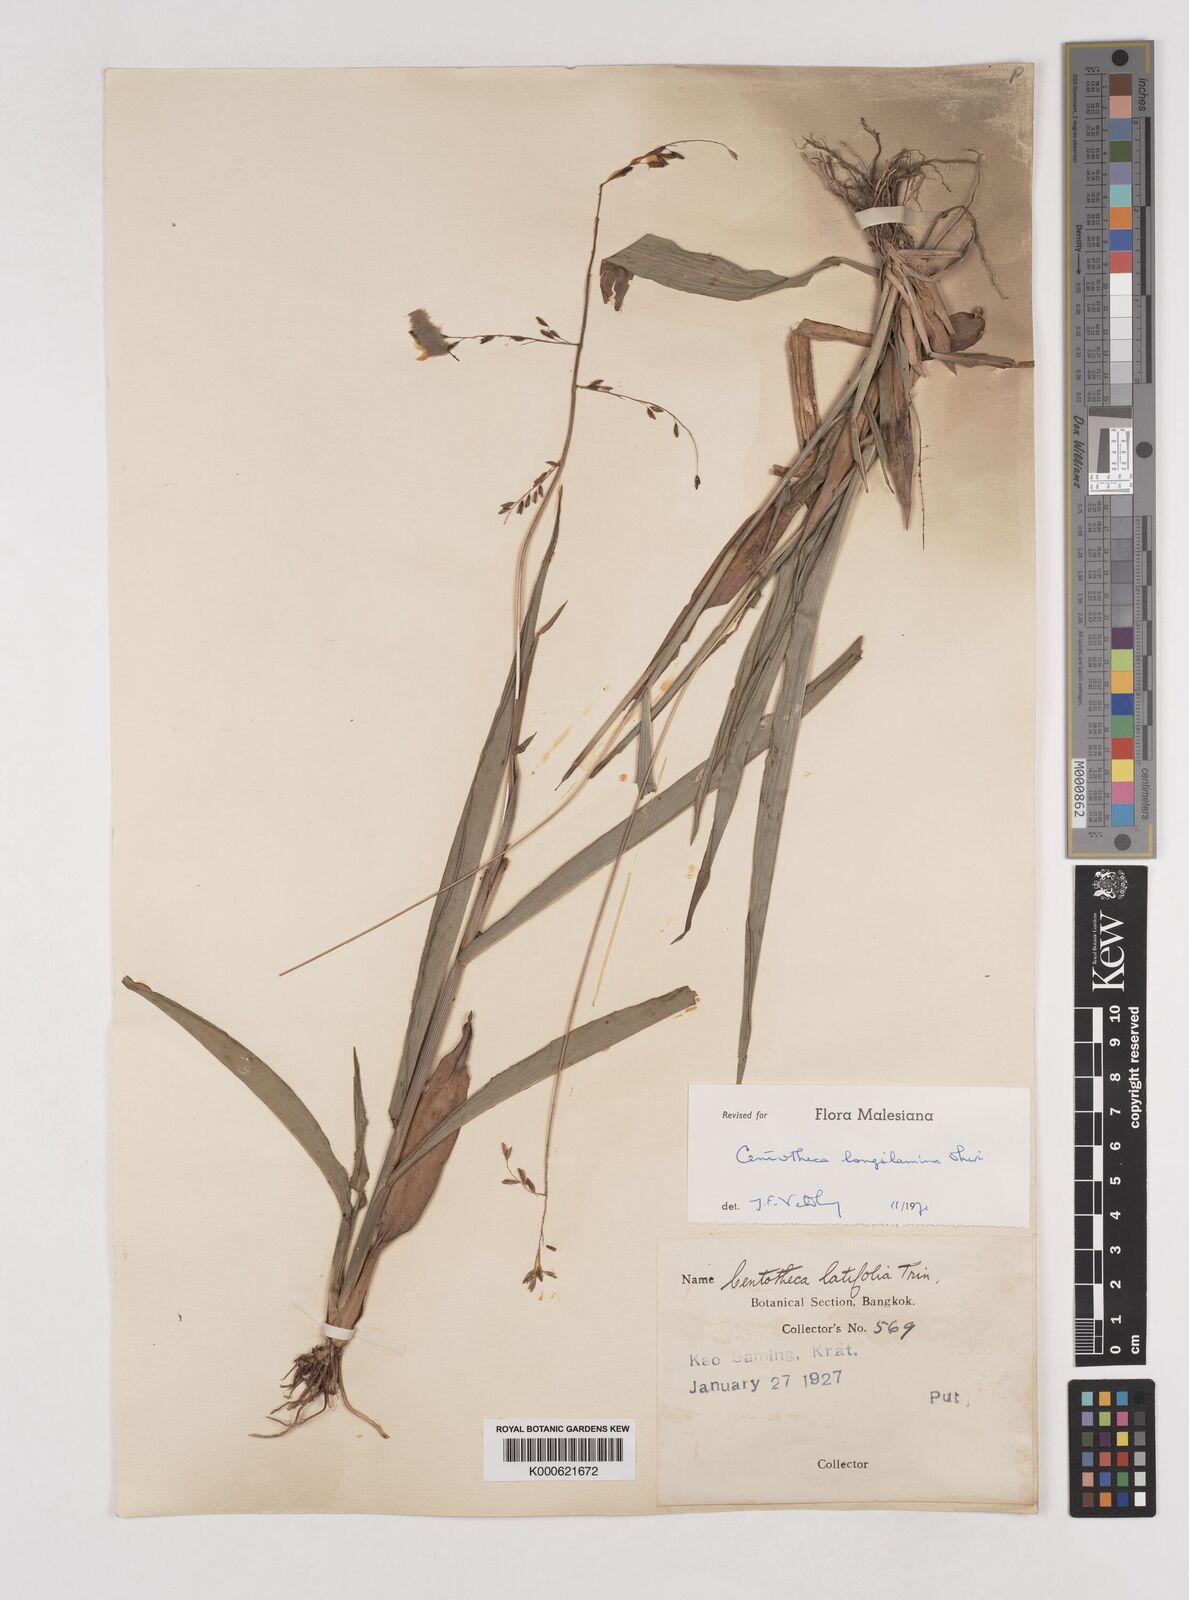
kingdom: Plantae
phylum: Tracheophyta
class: Liliopsida
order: Poales
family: Poaceae
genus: Centotheca
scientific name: Centotheca lappacea
